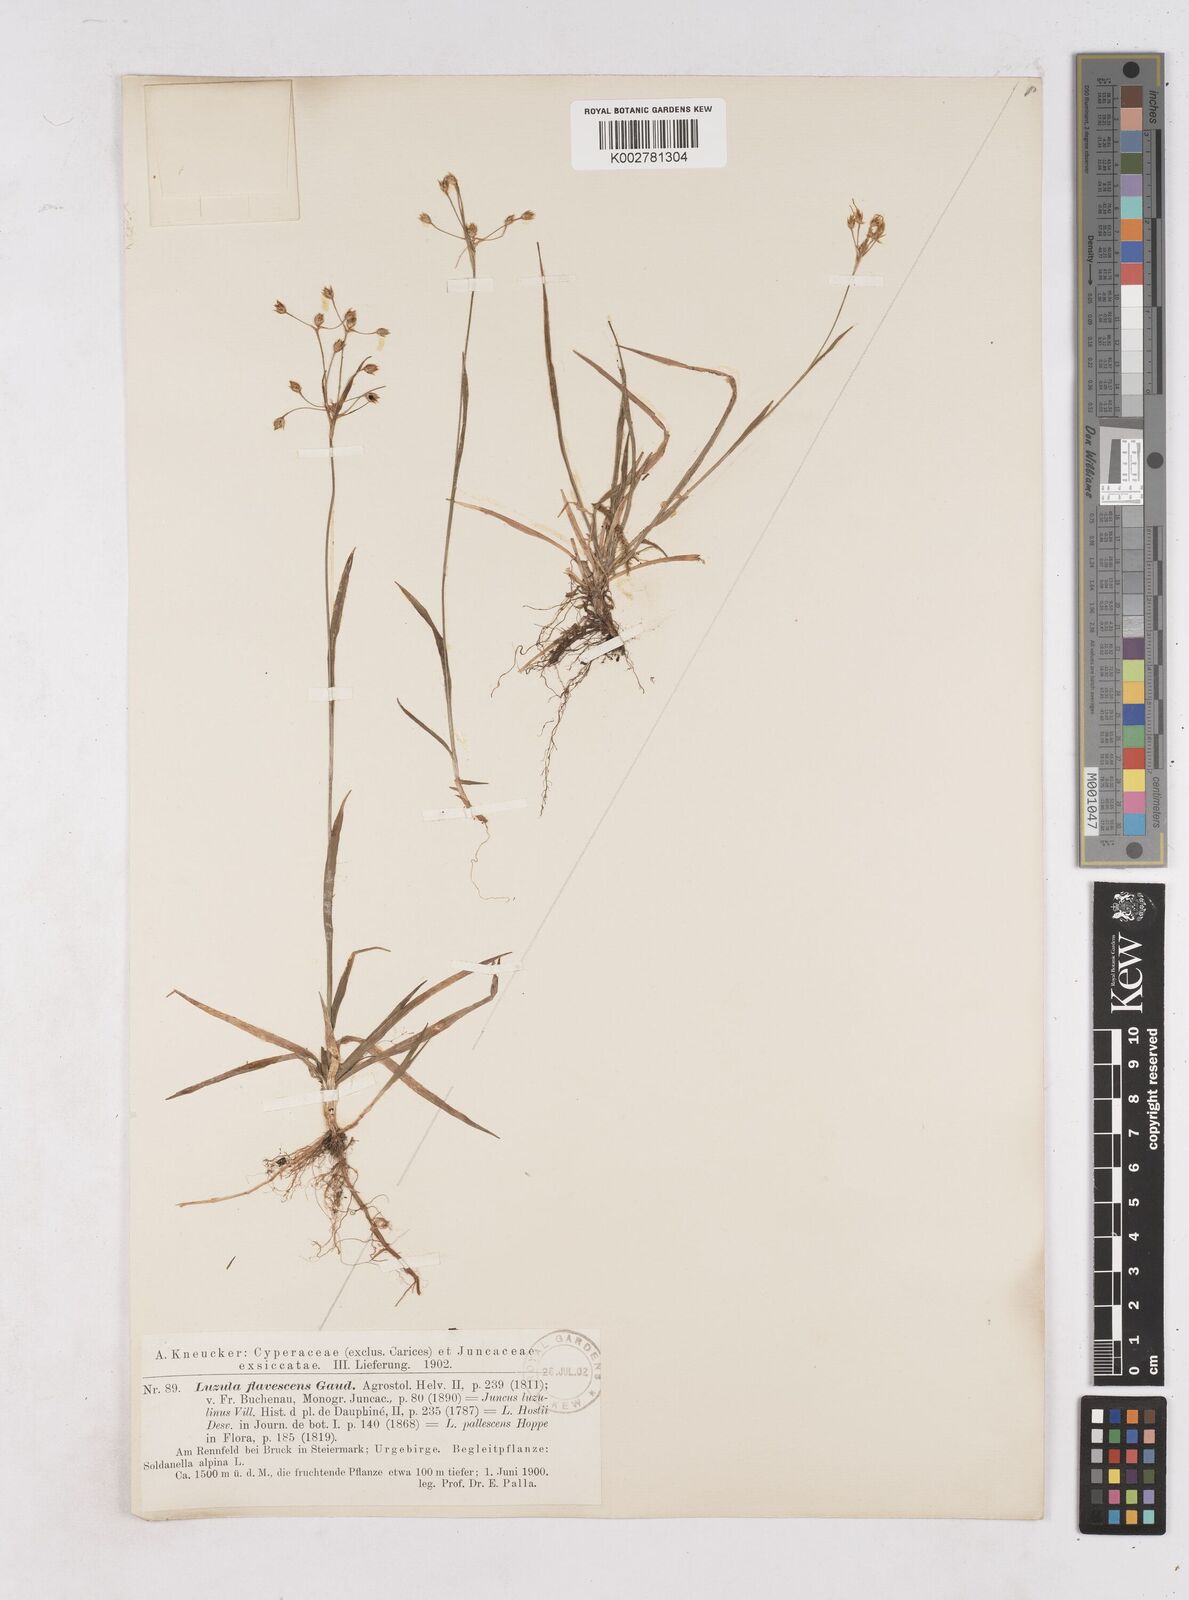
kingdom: Plantae
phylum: Tracheophyta
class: Liliopsida
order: Poales
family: Juncaceae
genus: Luzula
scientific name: Luzula luzulina
